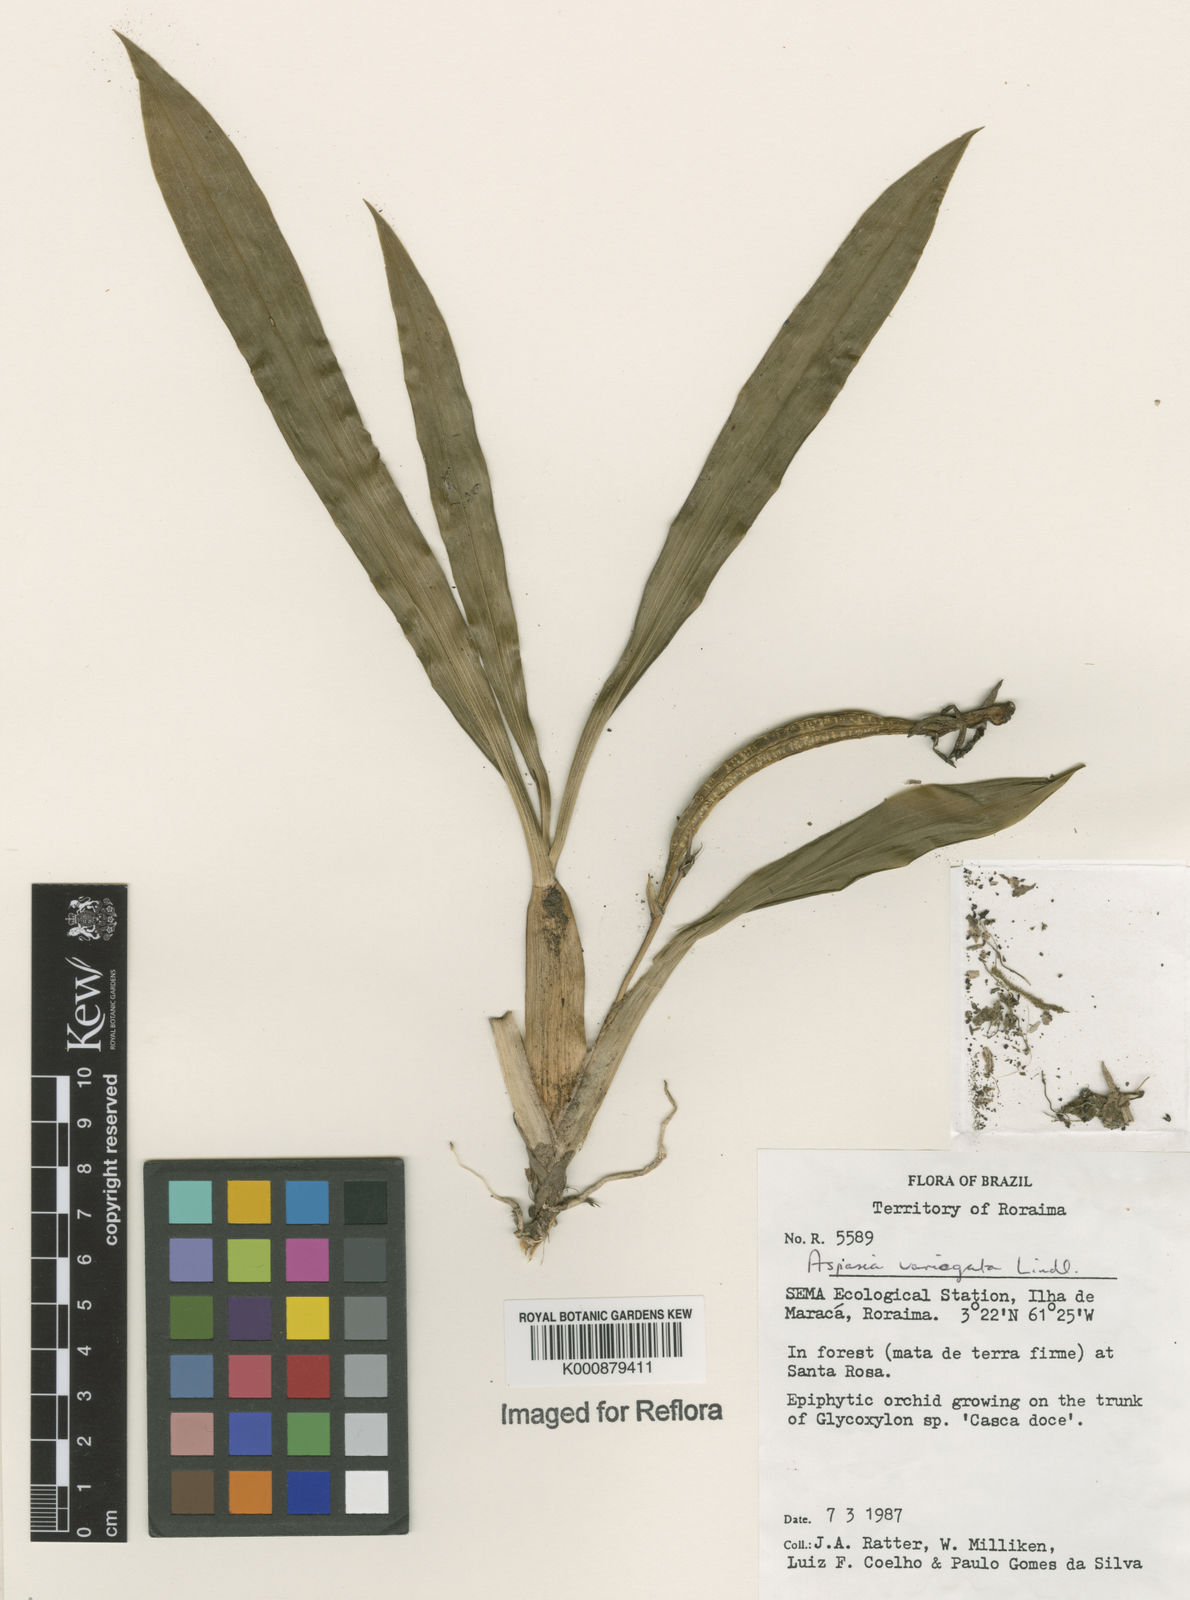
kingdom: Plantae
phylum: Tracheophyta
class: Liliopsida
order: Asparagales
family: Orchidaceae
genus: Aspasia
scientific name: Aspasia variegata
